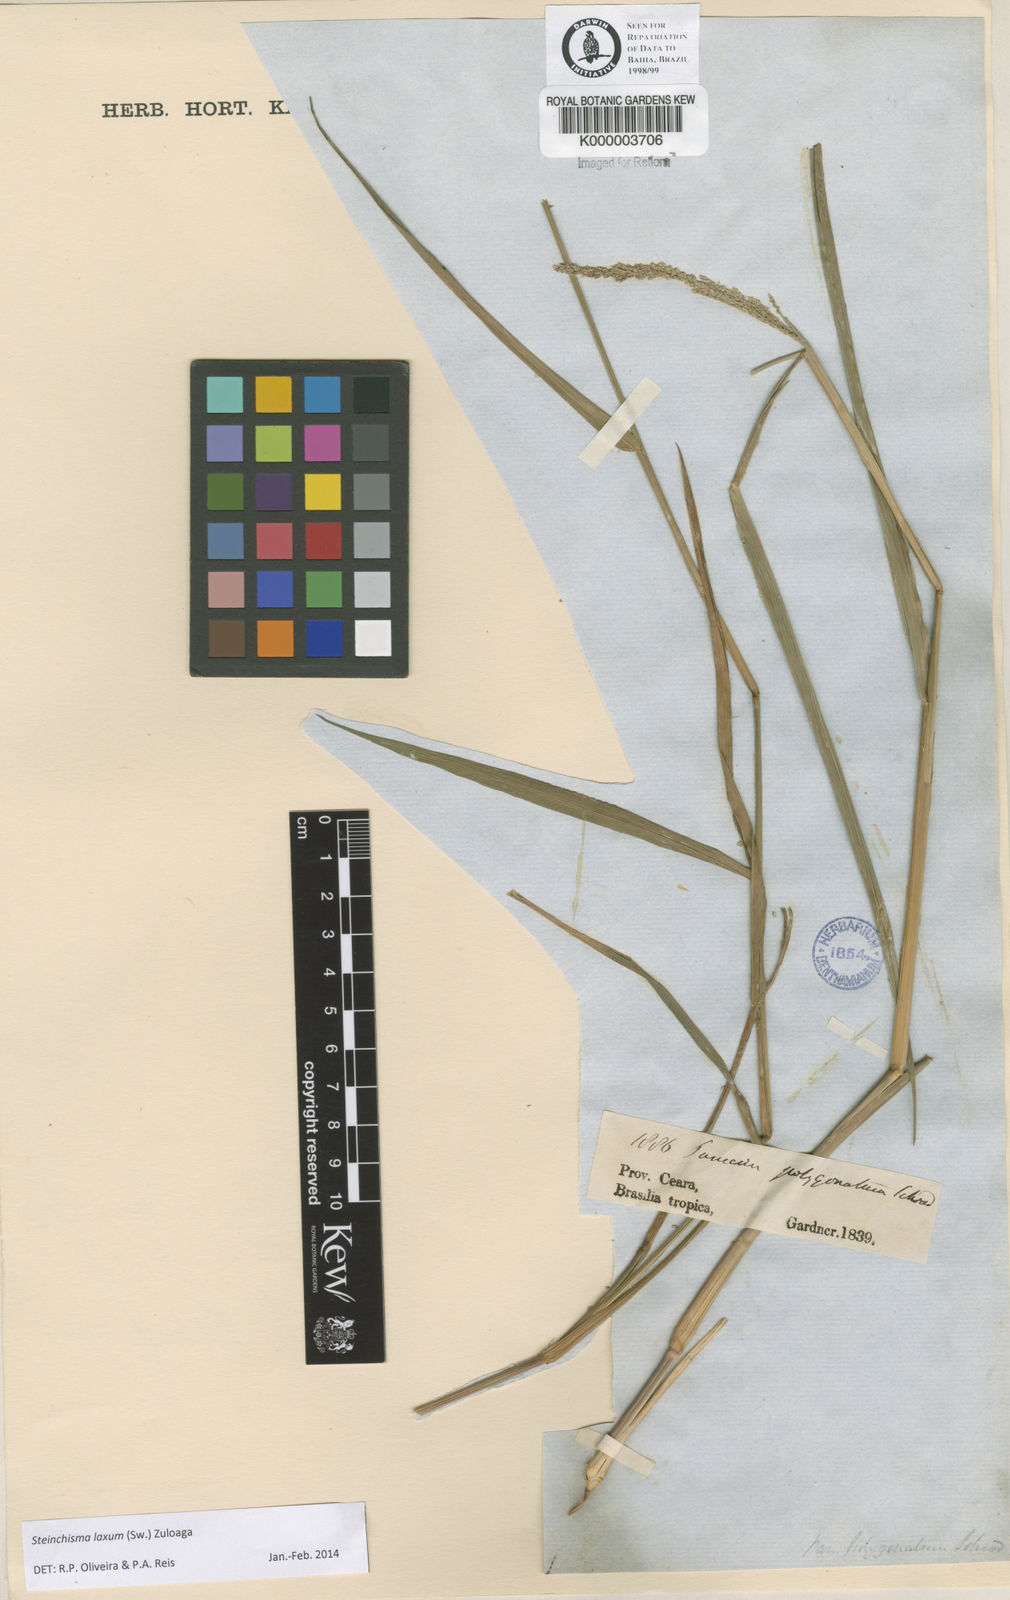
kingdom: Plantae
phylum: Tracheophyta
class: Liliopsida
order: Poales
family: Poaceae
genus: Panicum
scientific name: Panicum
